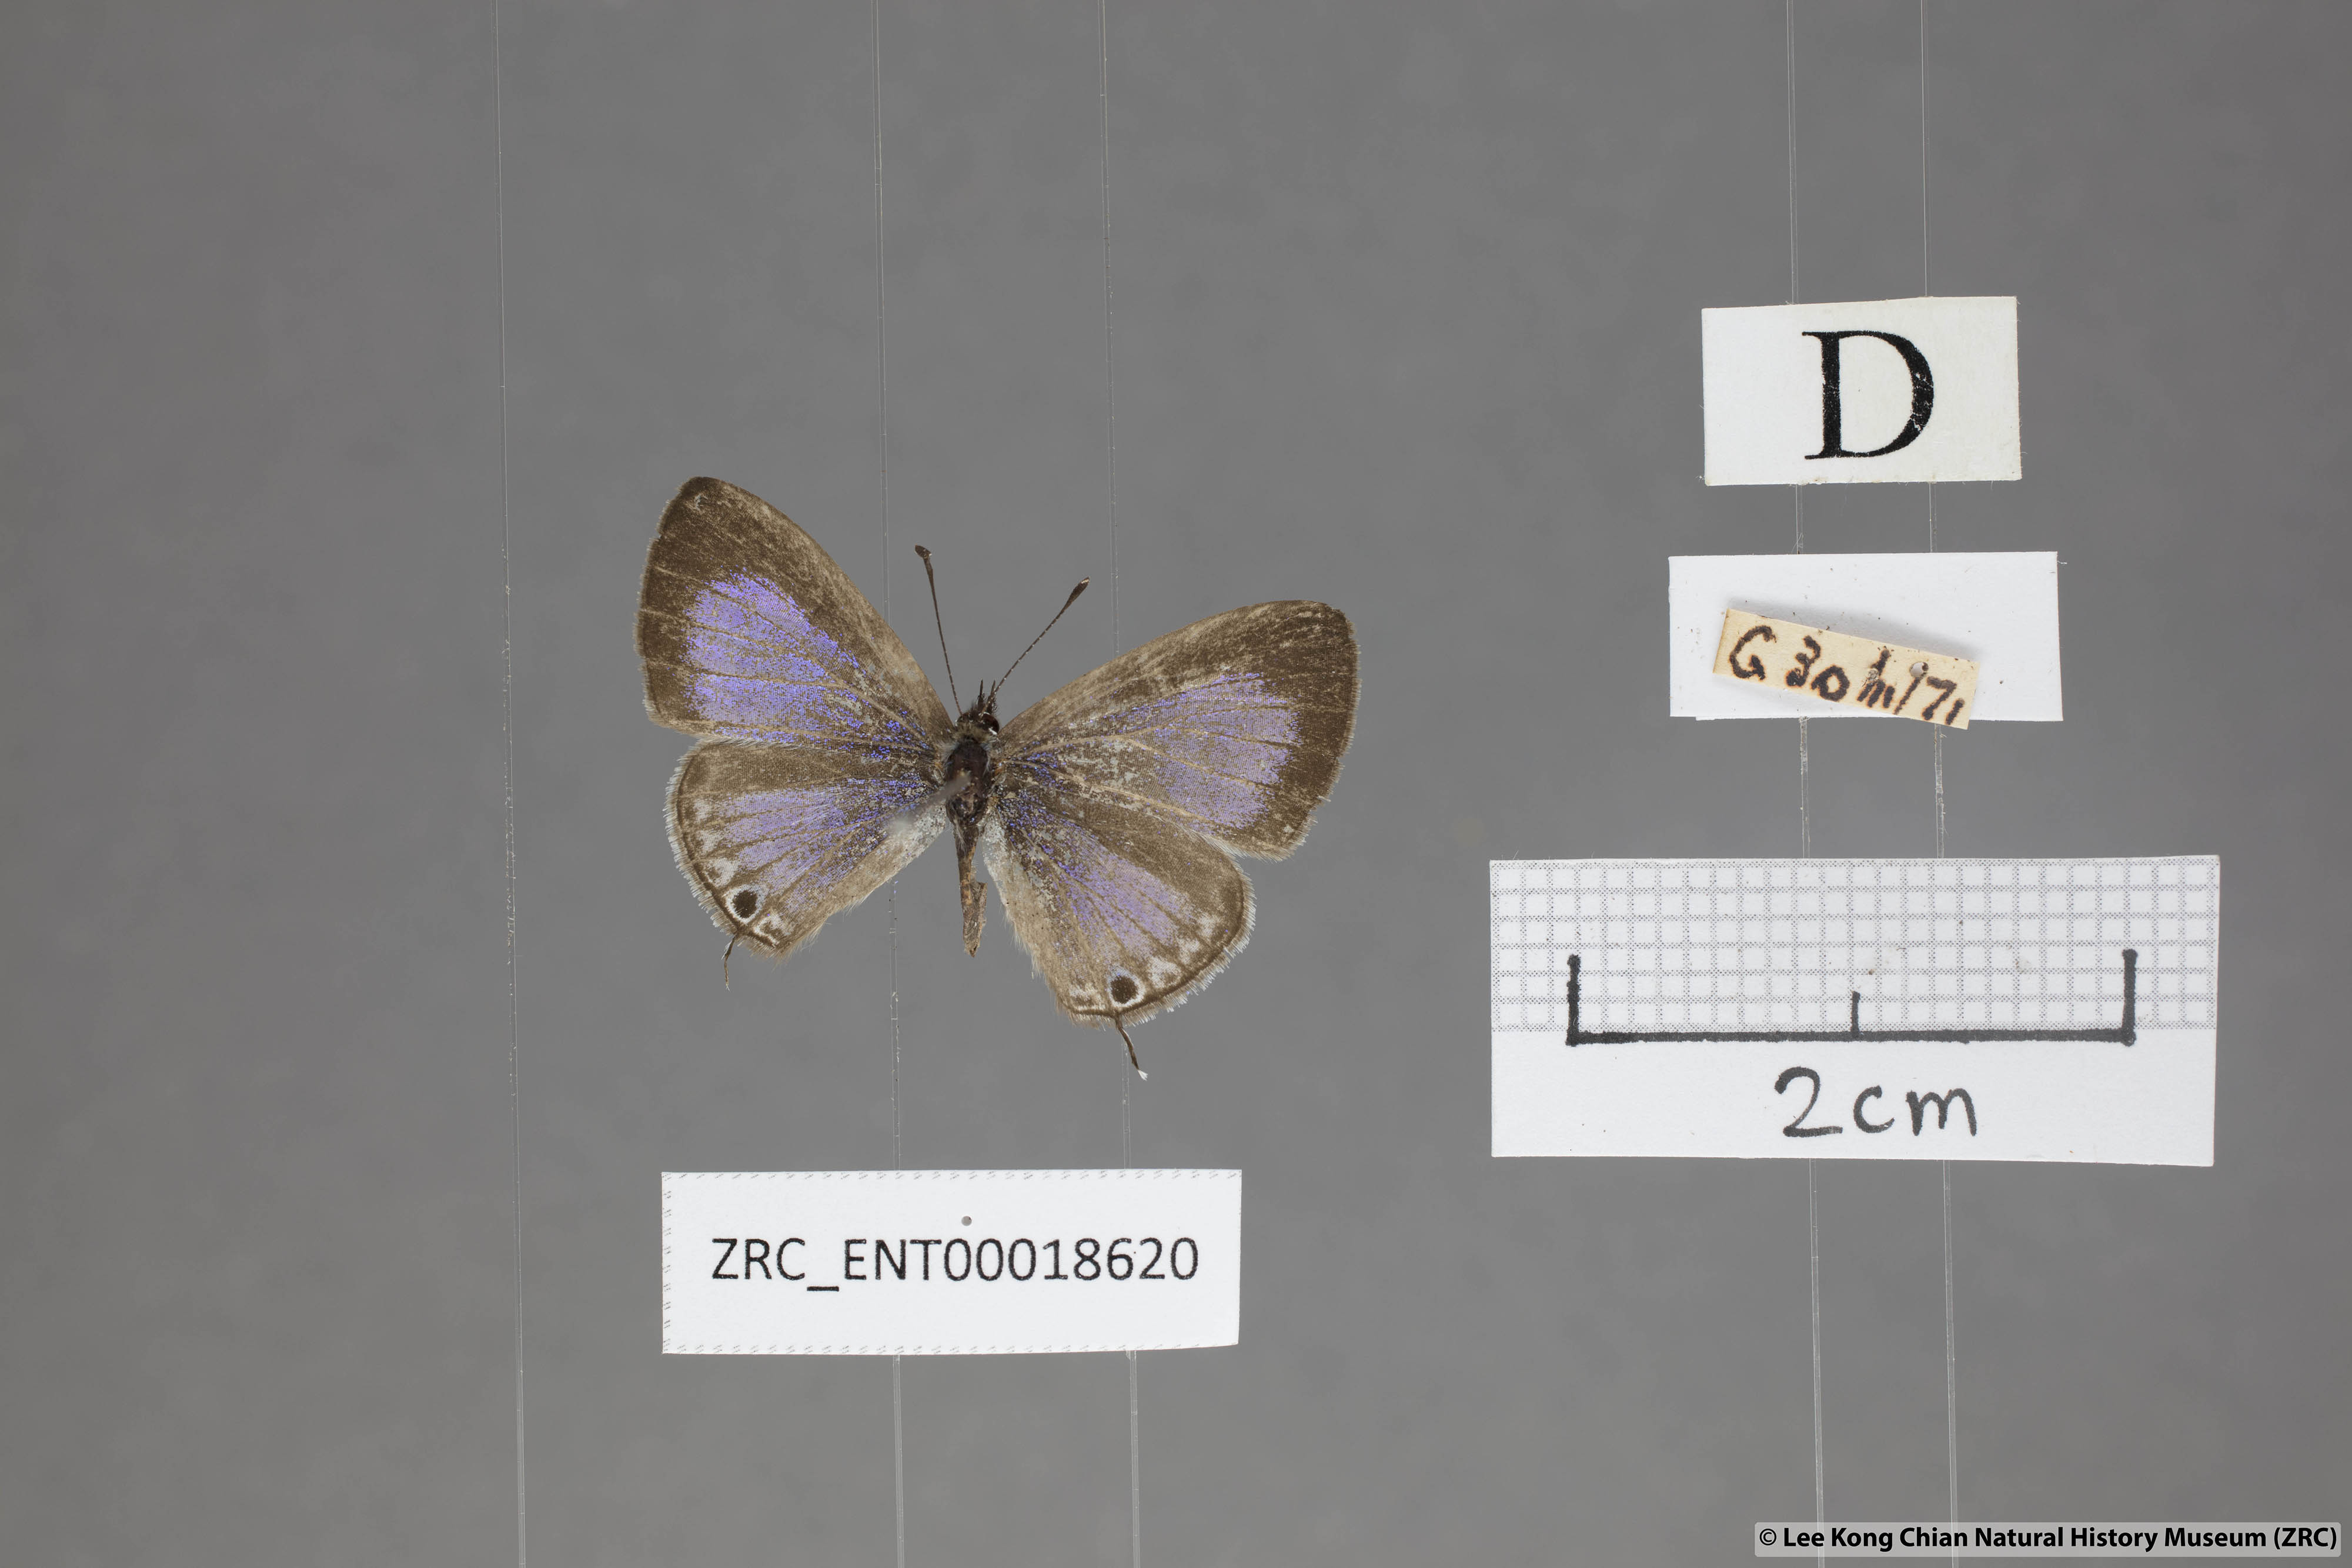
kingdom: Animalia
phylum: Arthropoda
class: Insecta
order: Lepidoptera
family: Lycaenidae
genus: Prosotas
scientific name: Prosotas nelides
